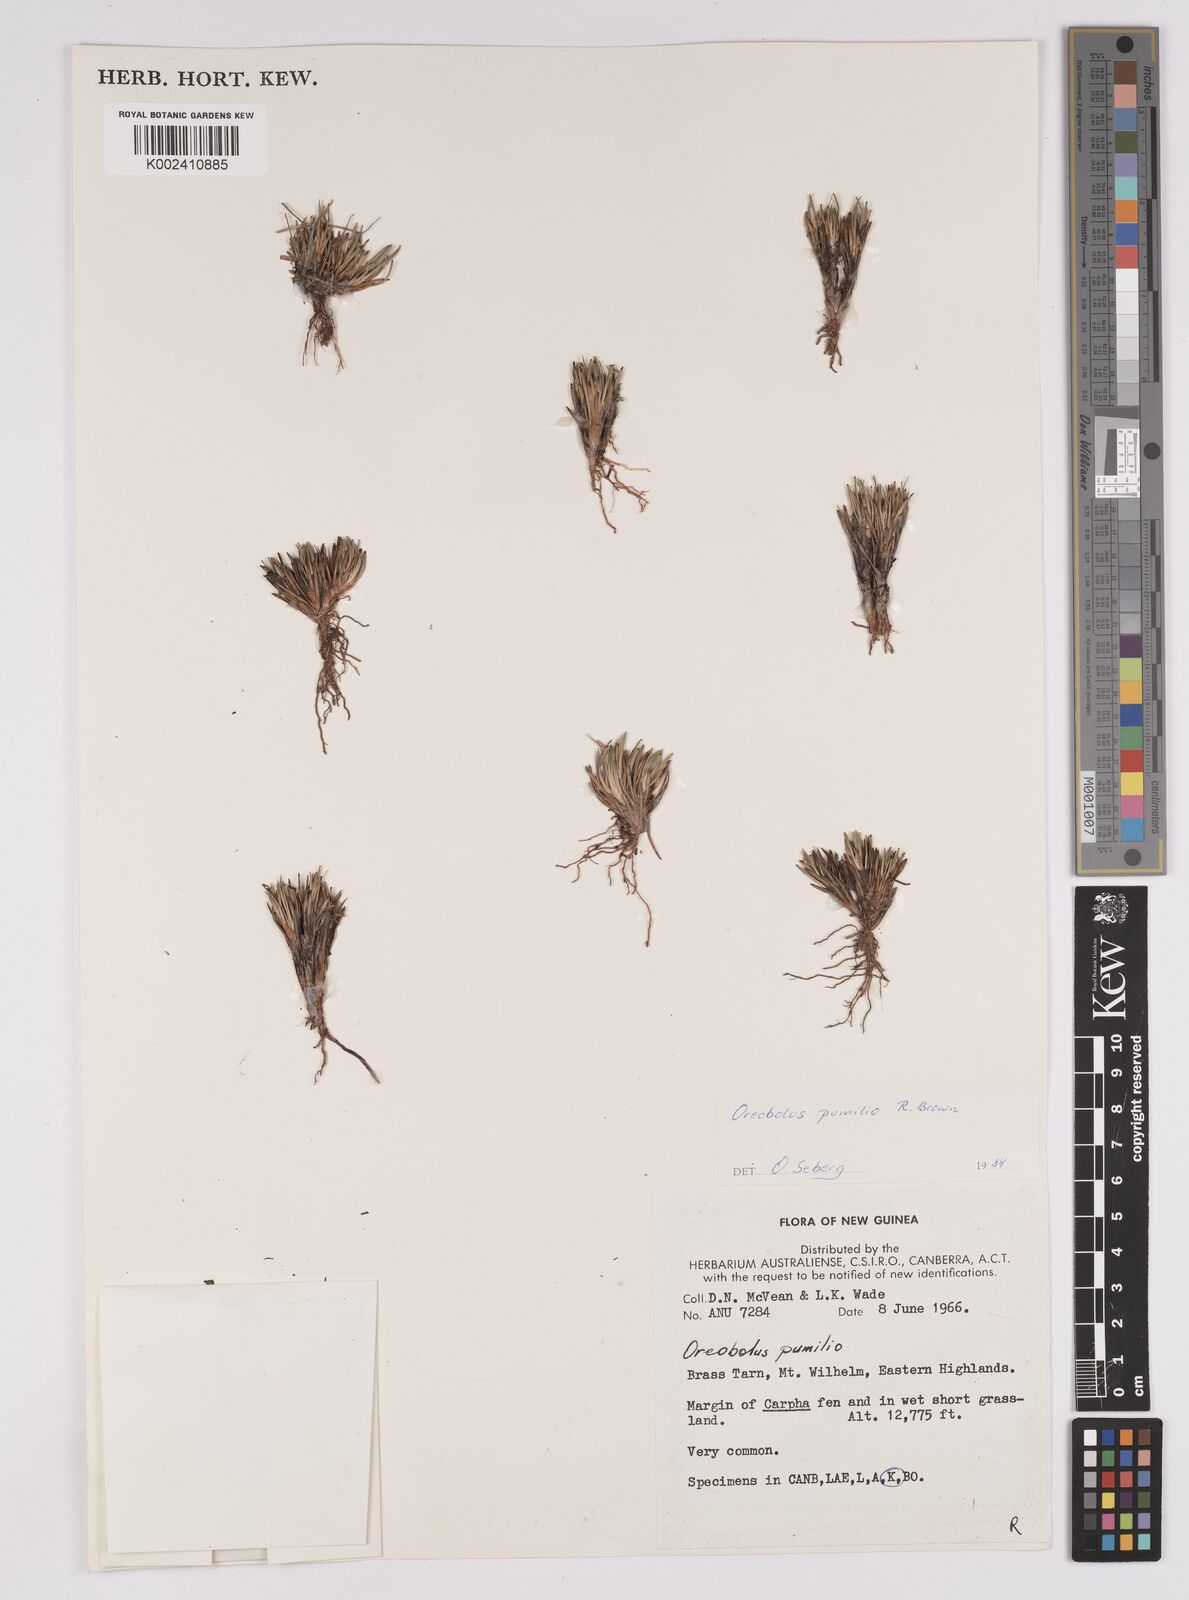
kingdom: Plantae
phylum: Tracheophyta
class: Liliopsida
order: Poales
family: Cyperaceae
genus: Oreobolus
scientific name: Oreobolus pumilio
